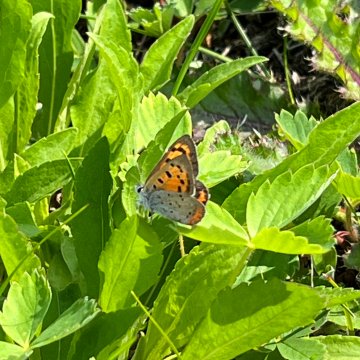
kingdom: Animalia
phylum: Arthropoda
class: Insecta
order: Lepidoptera
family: Lycaenidae
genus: Lycaena
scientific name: Lycaena phlaeas
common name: American Copper
